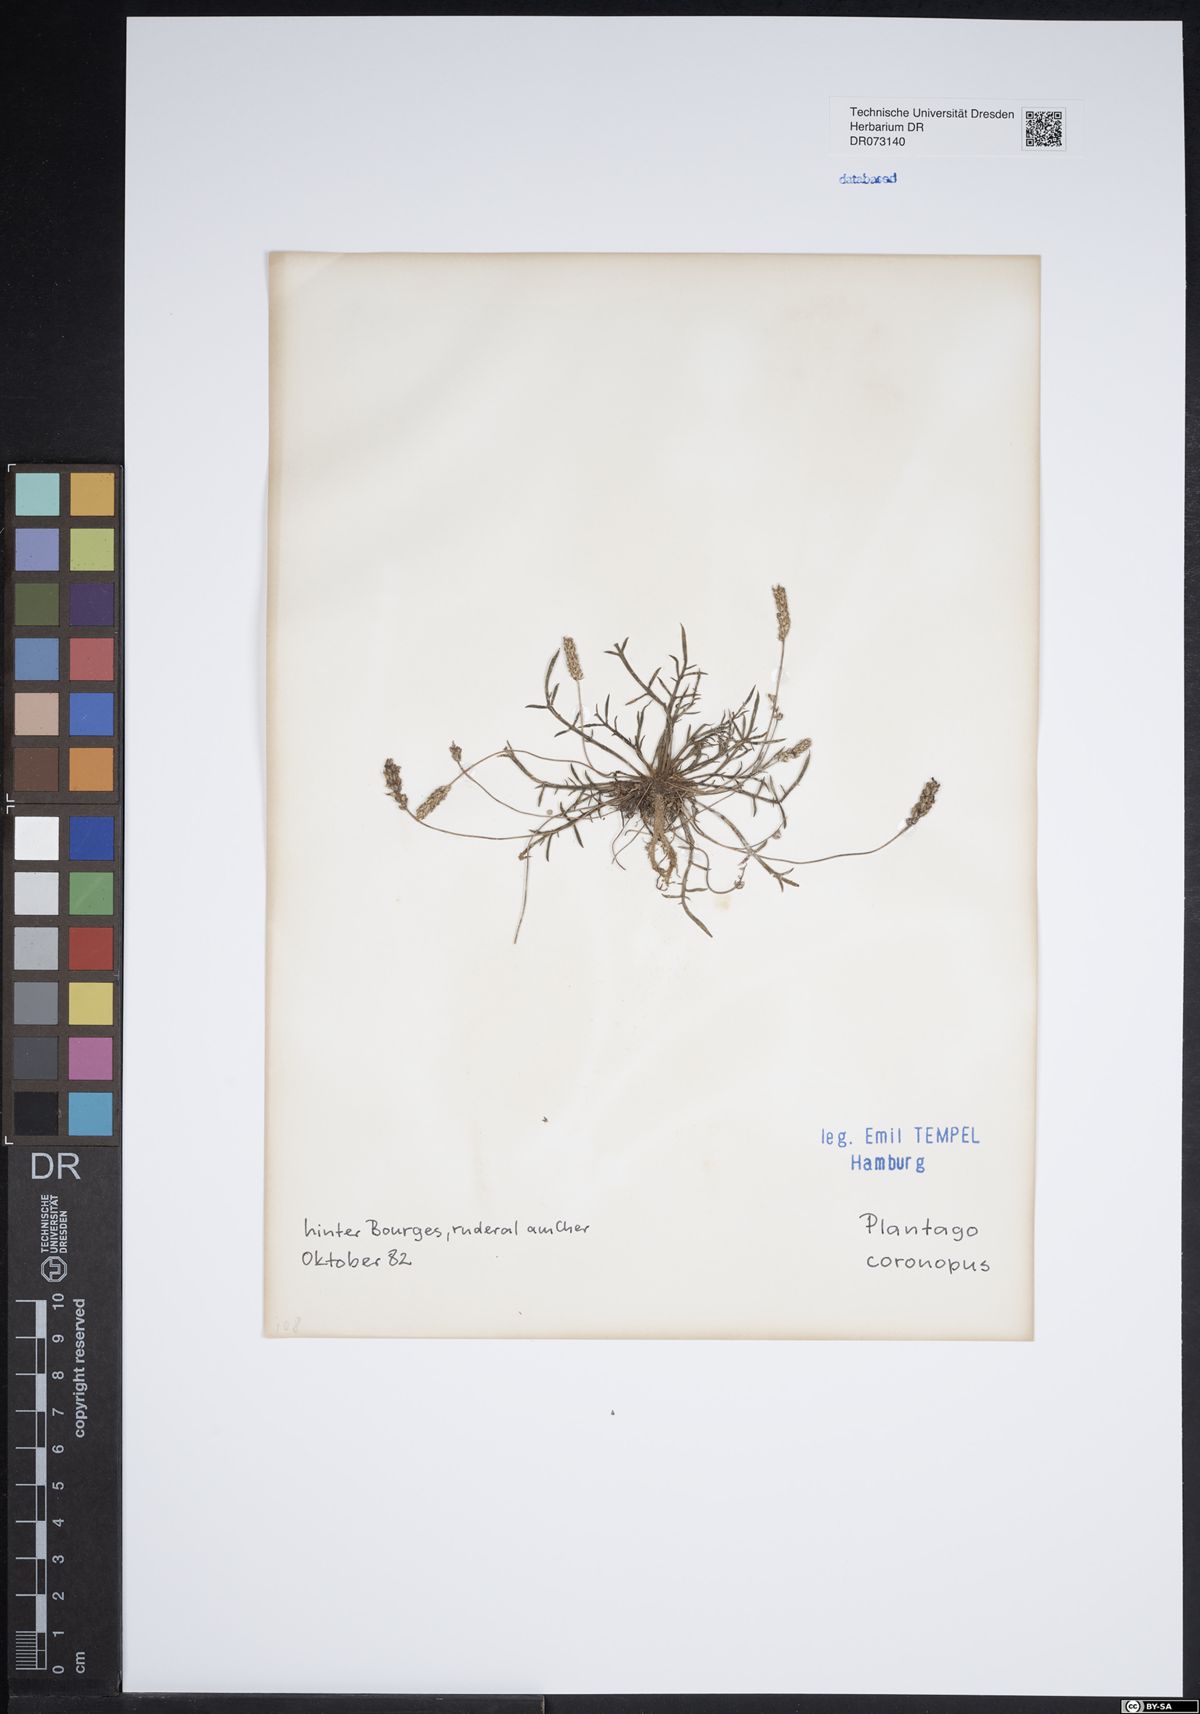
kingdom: Plantae
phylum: Tracheophyta
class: Magnoliopsida
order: Lamiales
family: Plantaginaceae
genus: Plantago
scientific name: Plantago coronopus
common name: Buck's-horn plantain
